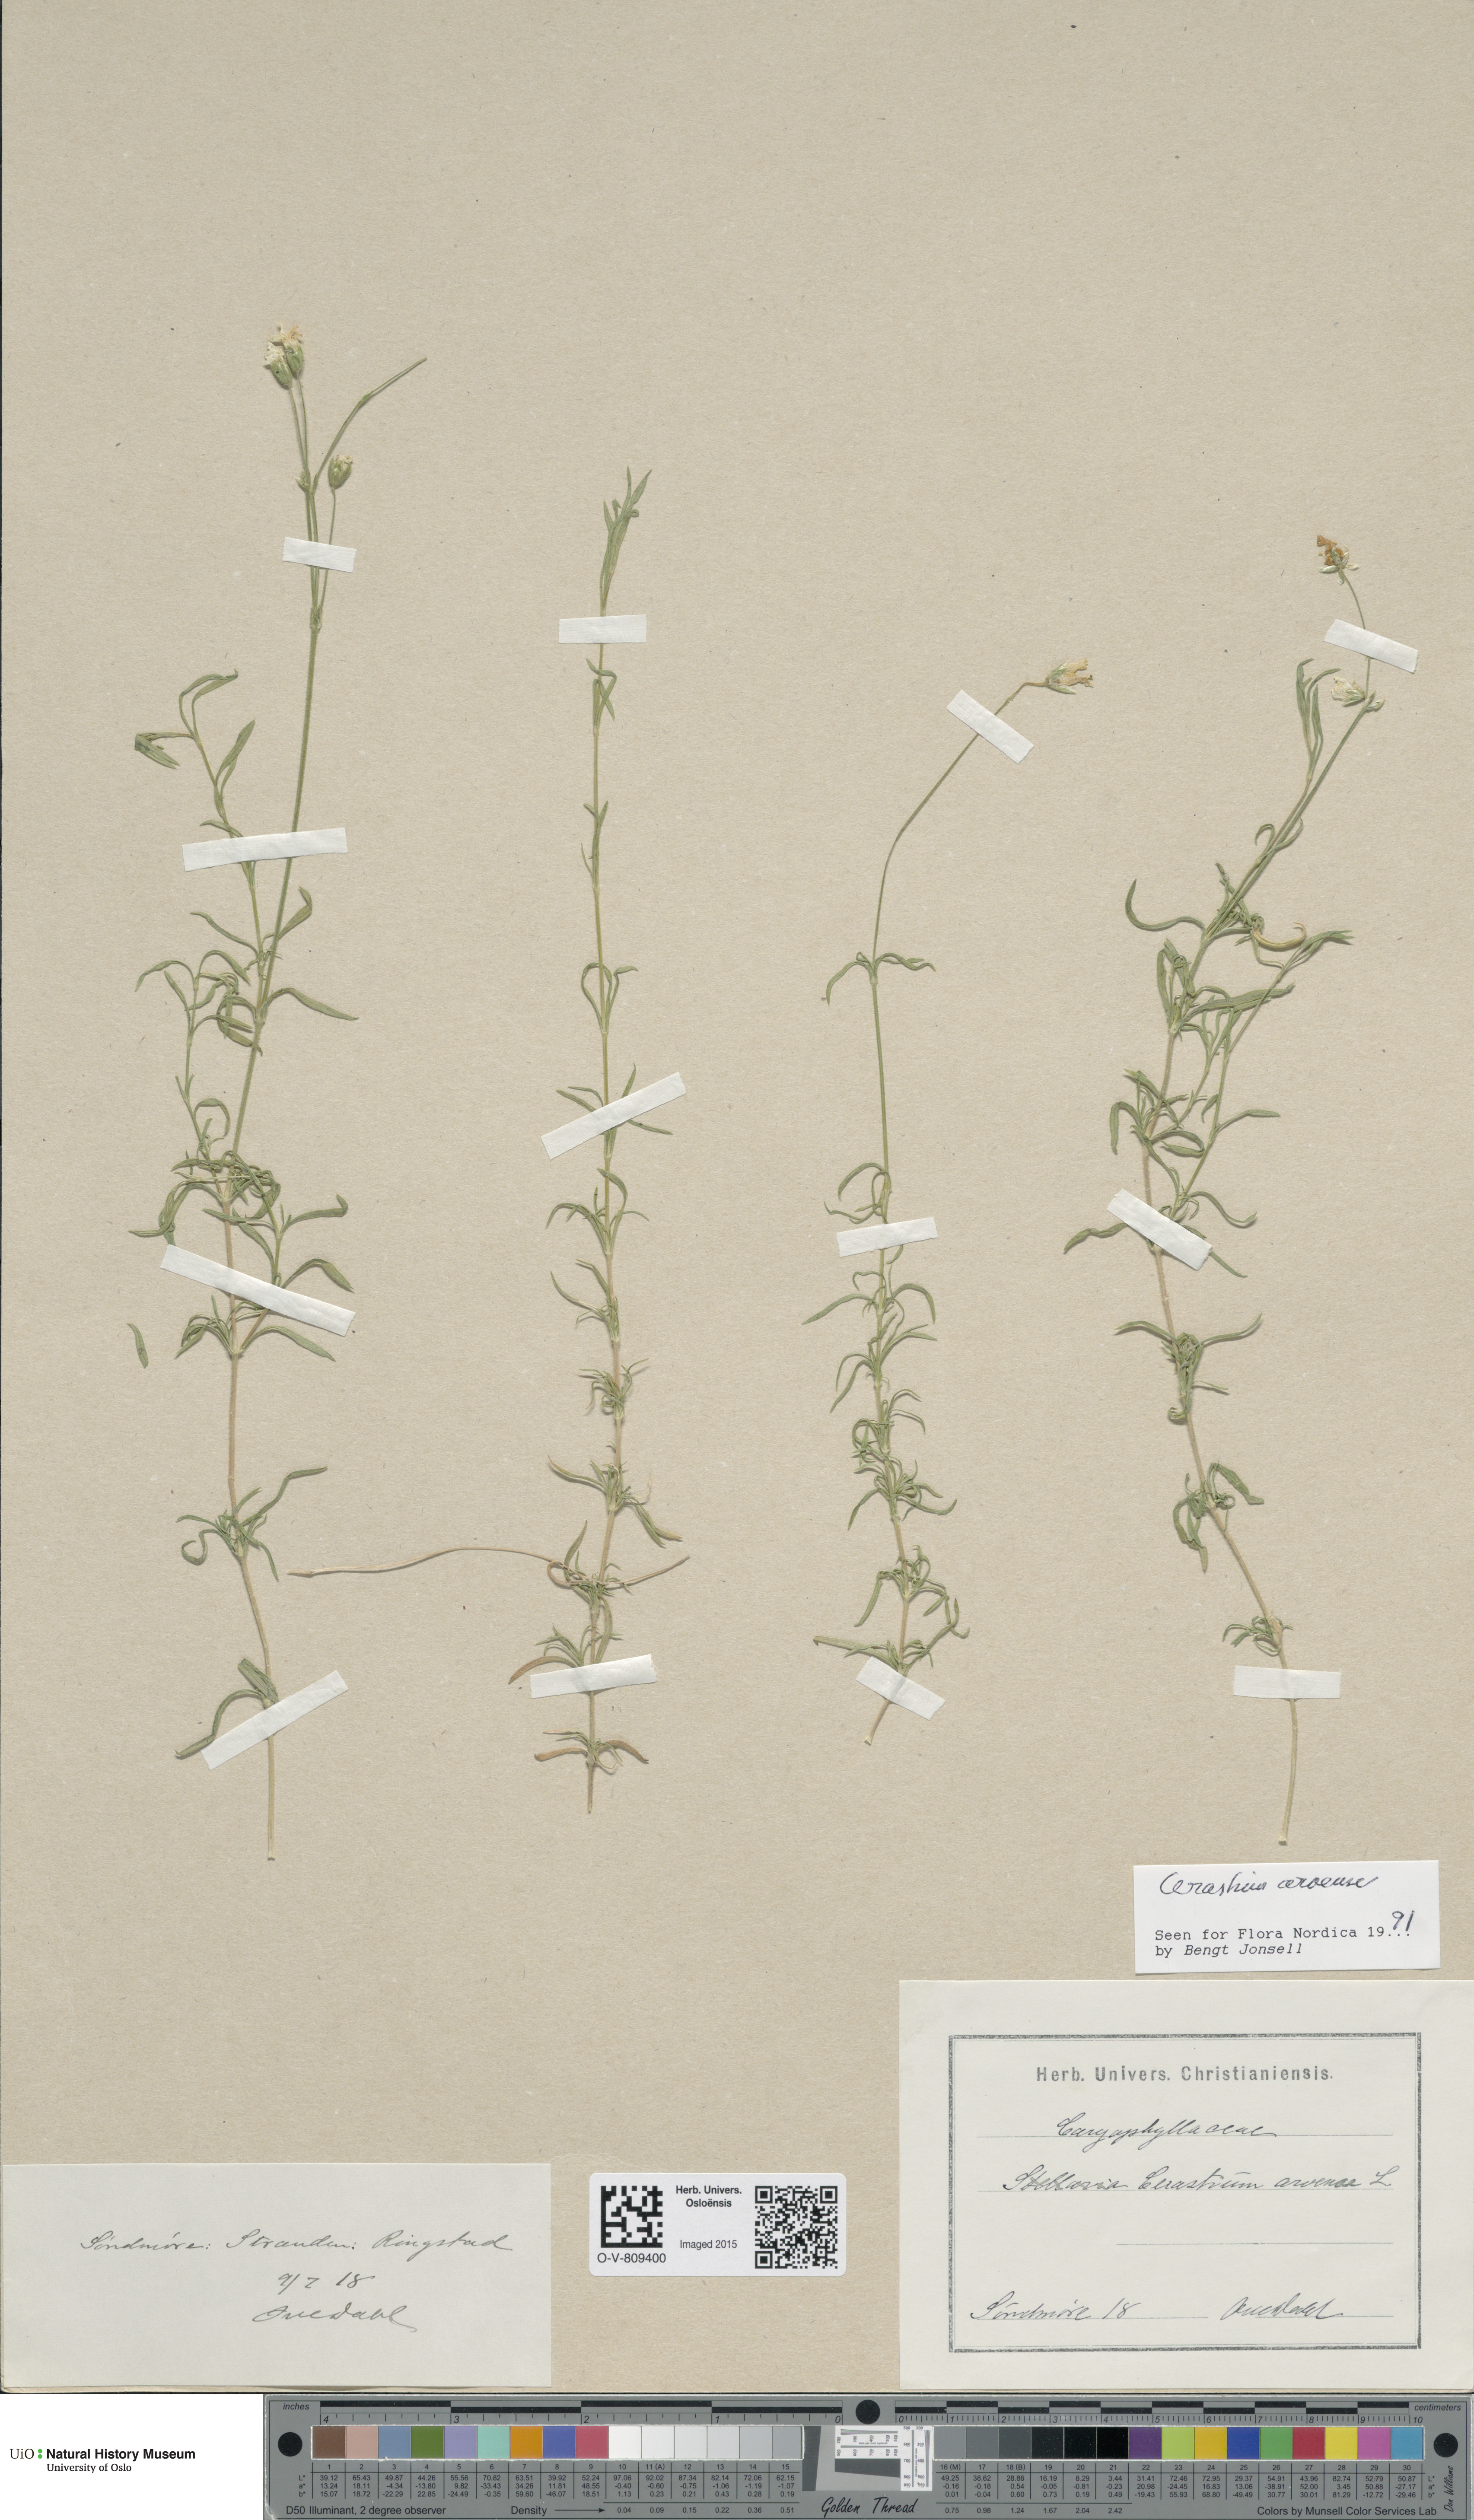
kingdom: Plantae
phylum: Tracheophyta
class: Magnoliopsida
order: Caryophyllales
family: Caryophyllaceae
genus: Cerastium
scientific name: Cerastium arvense
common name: Field mouse-ear
